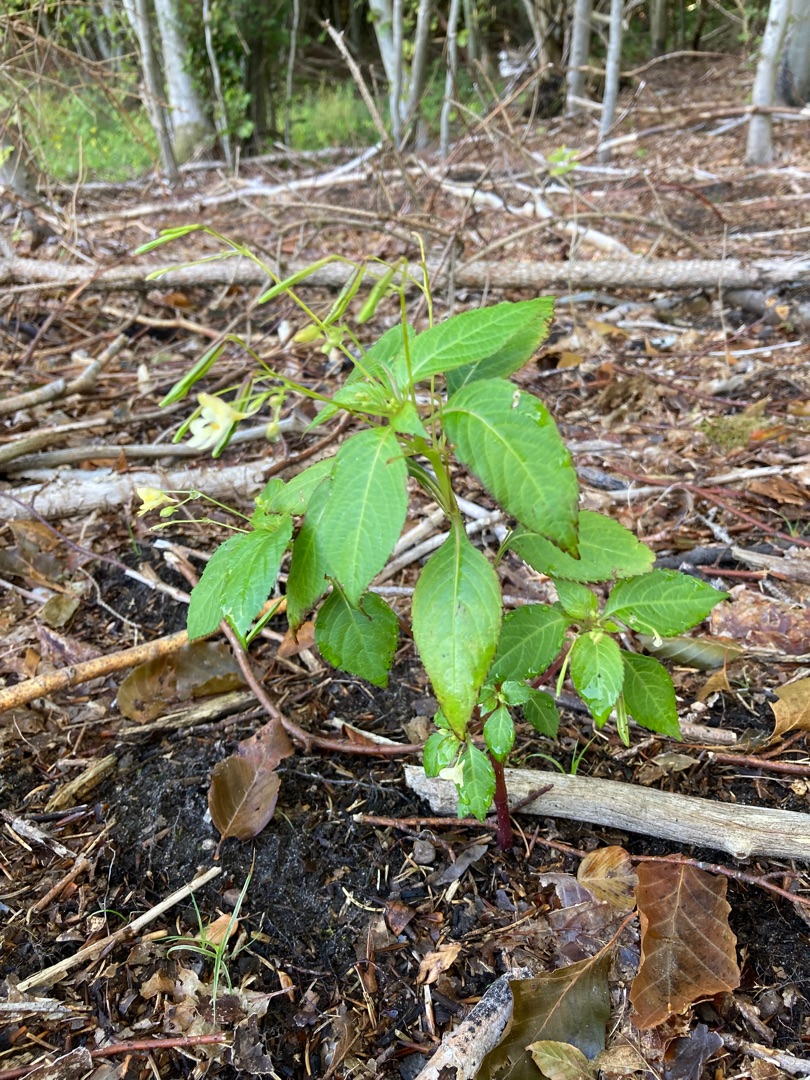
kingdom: Plantae
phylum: Tracheophyta
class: Magnoliopsida
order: Ericales
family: Balsaminaceae
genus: Impatiens
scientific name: Impatiens parviflora
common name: Småblomstret balsamin
